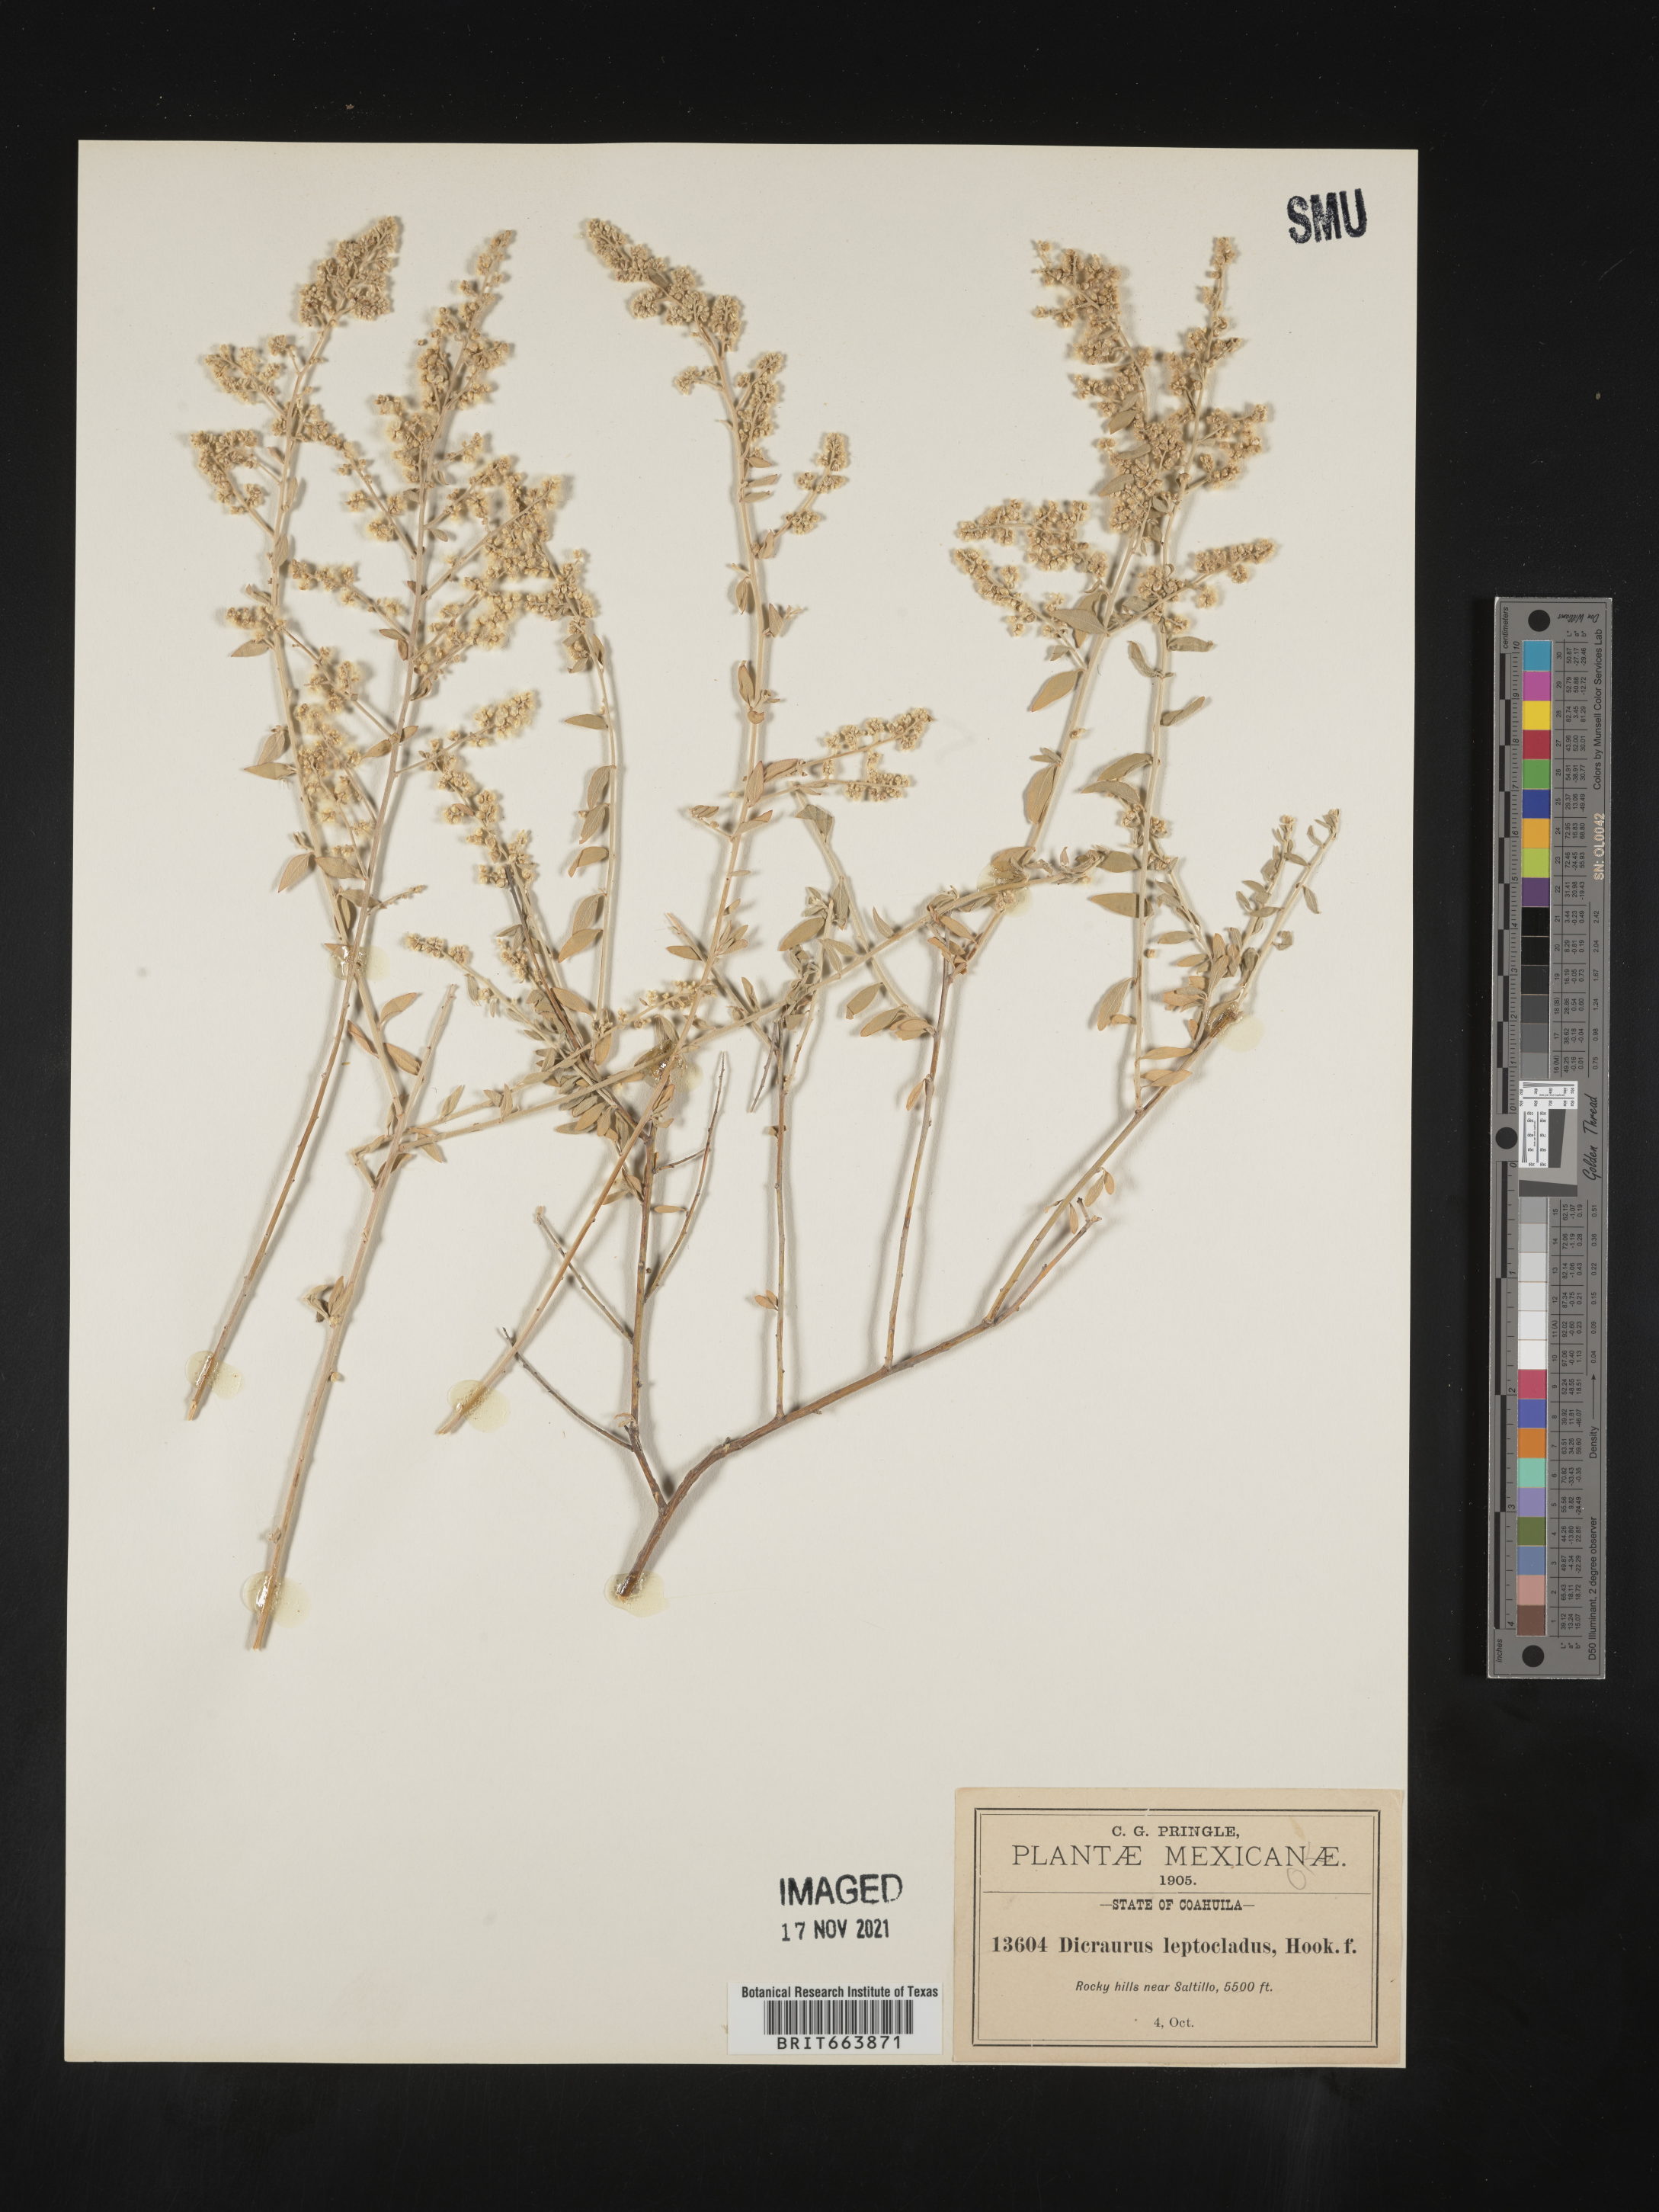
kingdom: Plantae
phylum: Tracheophyta
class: Magnoliopsida
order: Caryophyllales
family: Amaranthaceae
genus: Iresine
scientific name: Iresine
